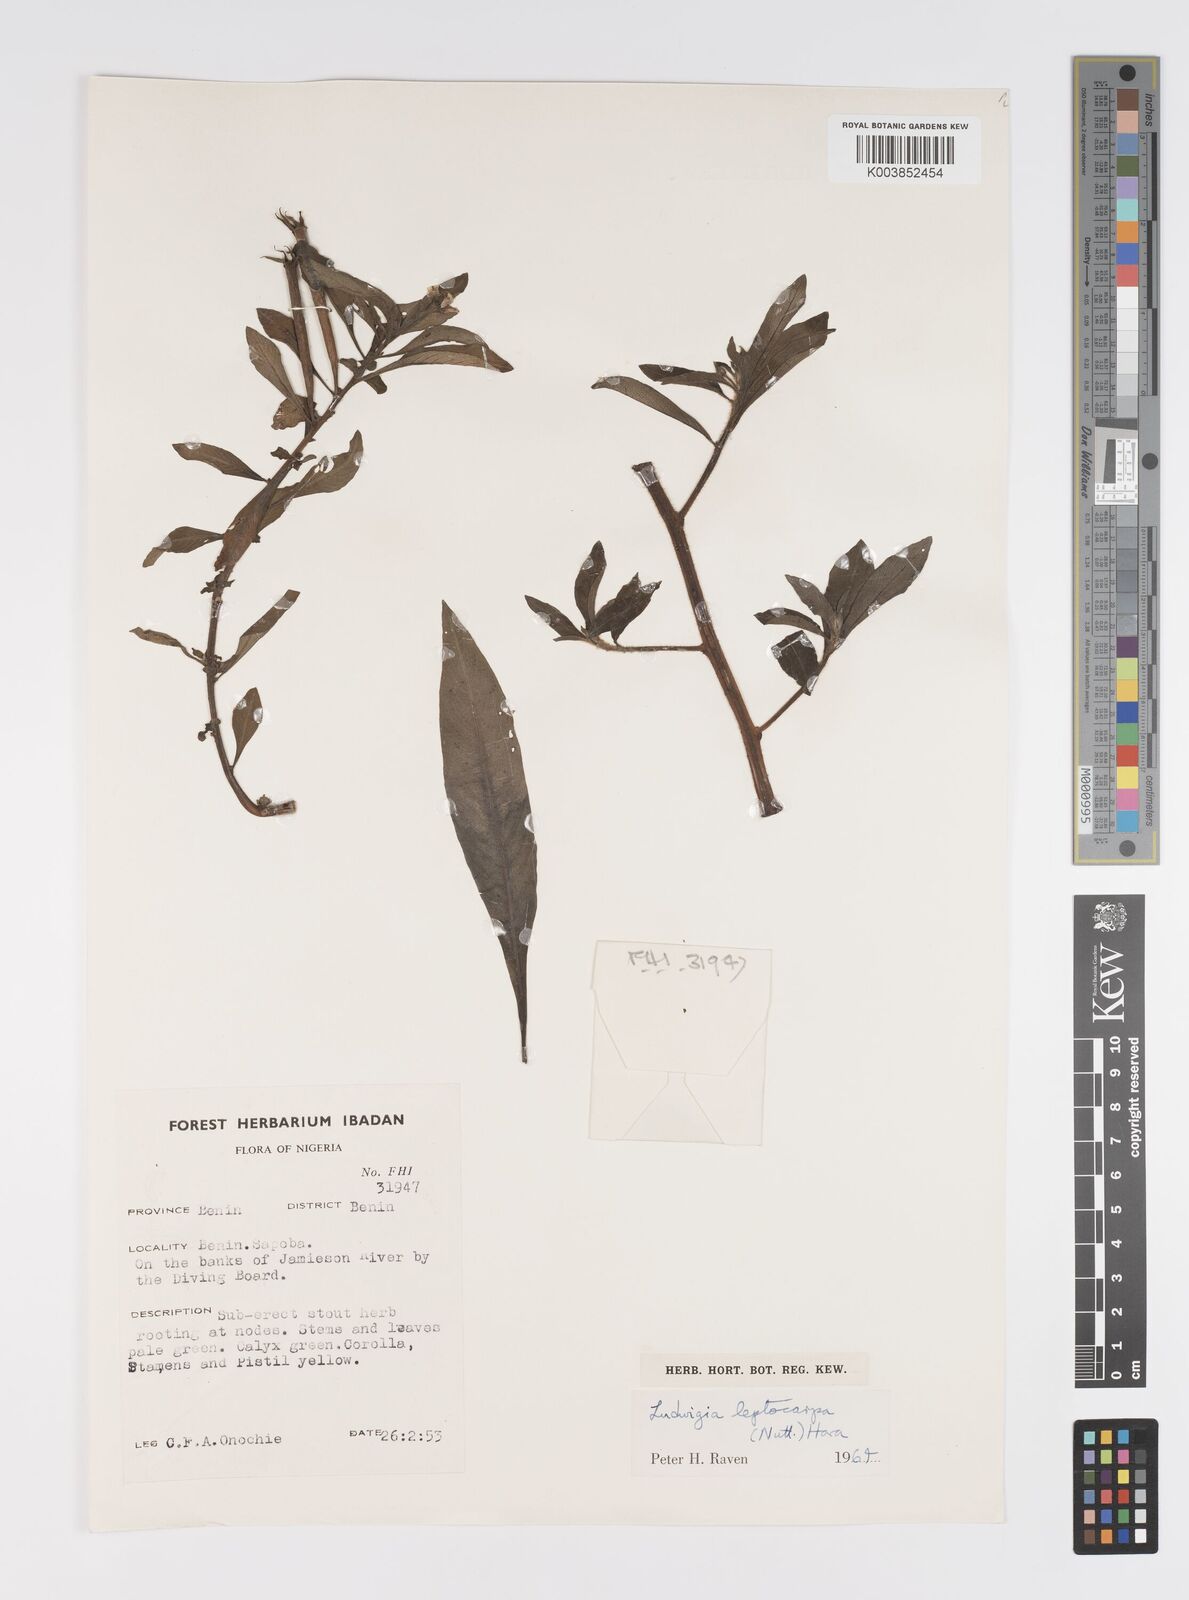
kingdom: Plantae
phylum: Tracheophyta
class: Magnoliopsida
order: Myrtales
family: Onagraceae
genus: Ludwigia
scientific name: Ludwigia leptocarpa
